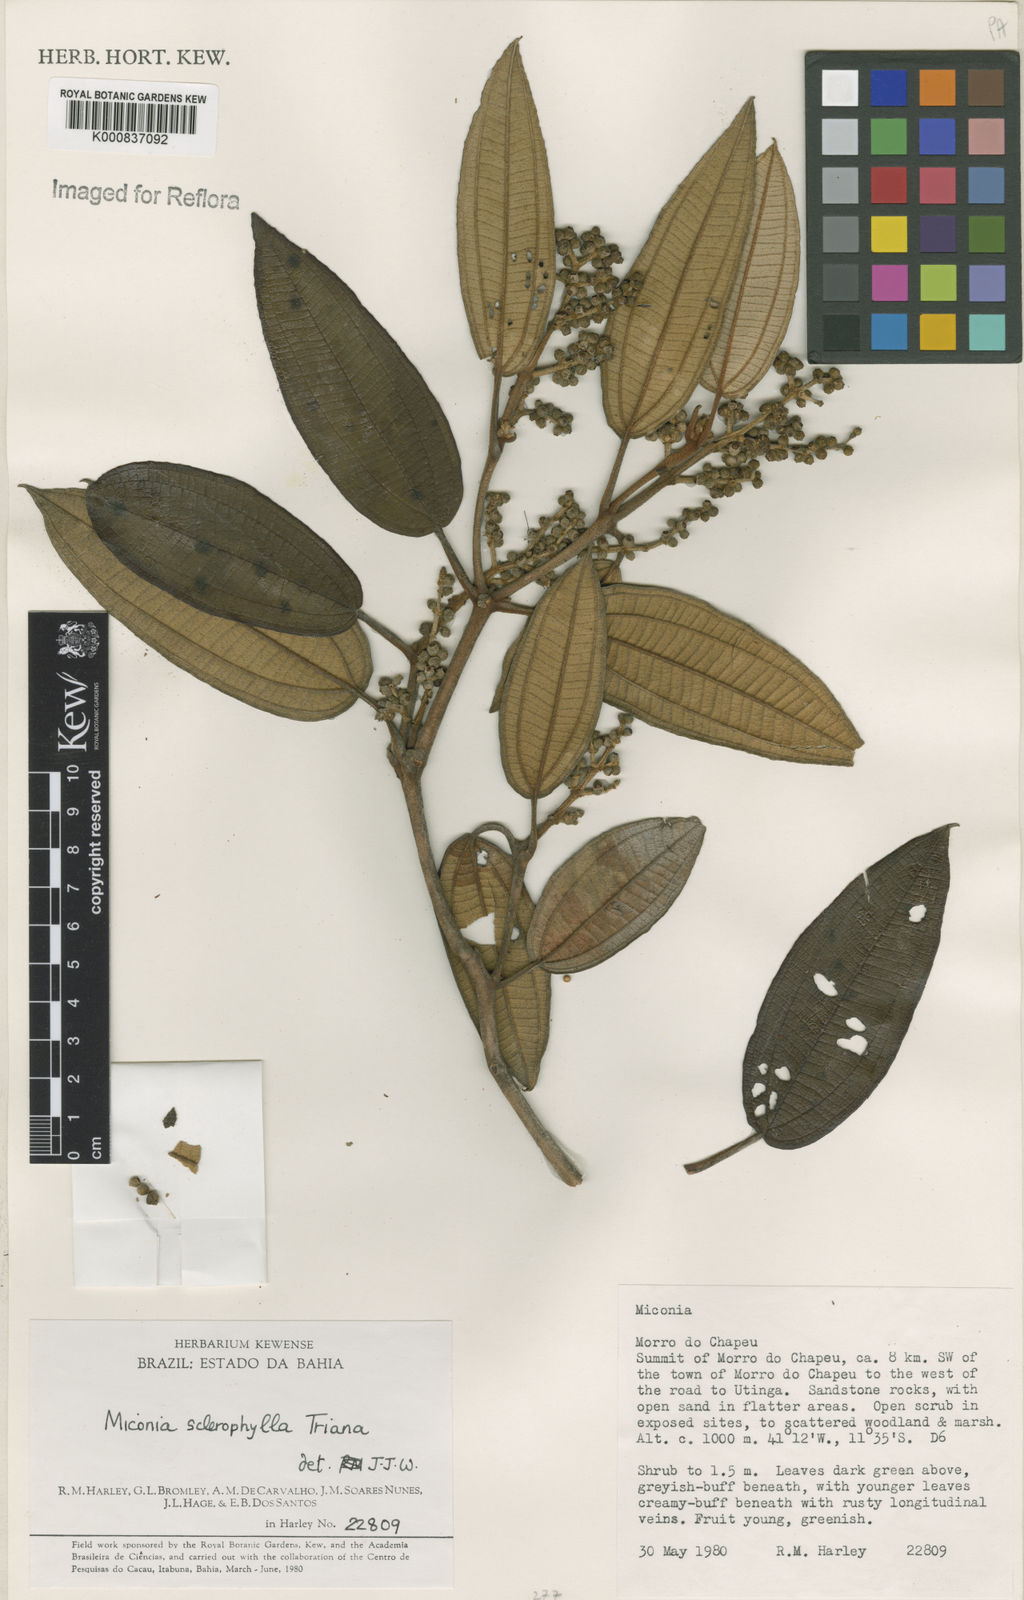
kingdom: Plantae
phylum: Tracheophyta
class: Magnoliopsida
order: Myrtales
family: Melastomataceae
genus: Miconia
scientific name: Miconia sclerophylla
